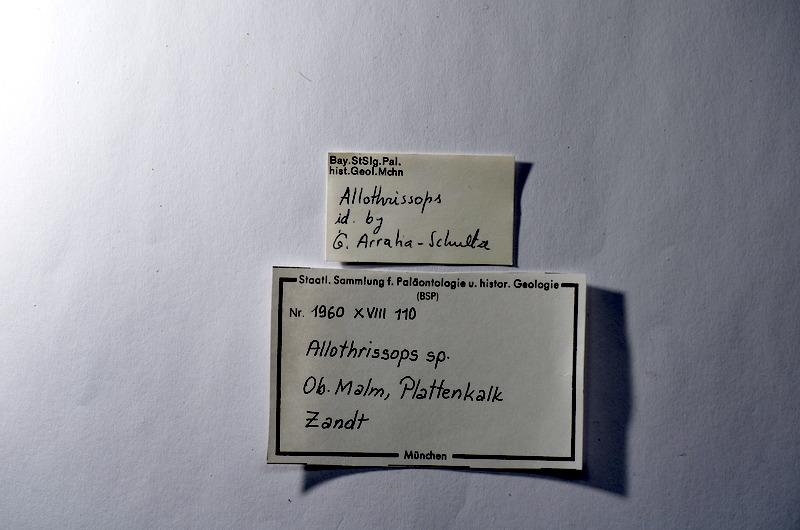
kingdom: Animalia
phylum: Chordata
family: Allothrissopidae
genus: Allothrissops
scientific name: Allothrissops
